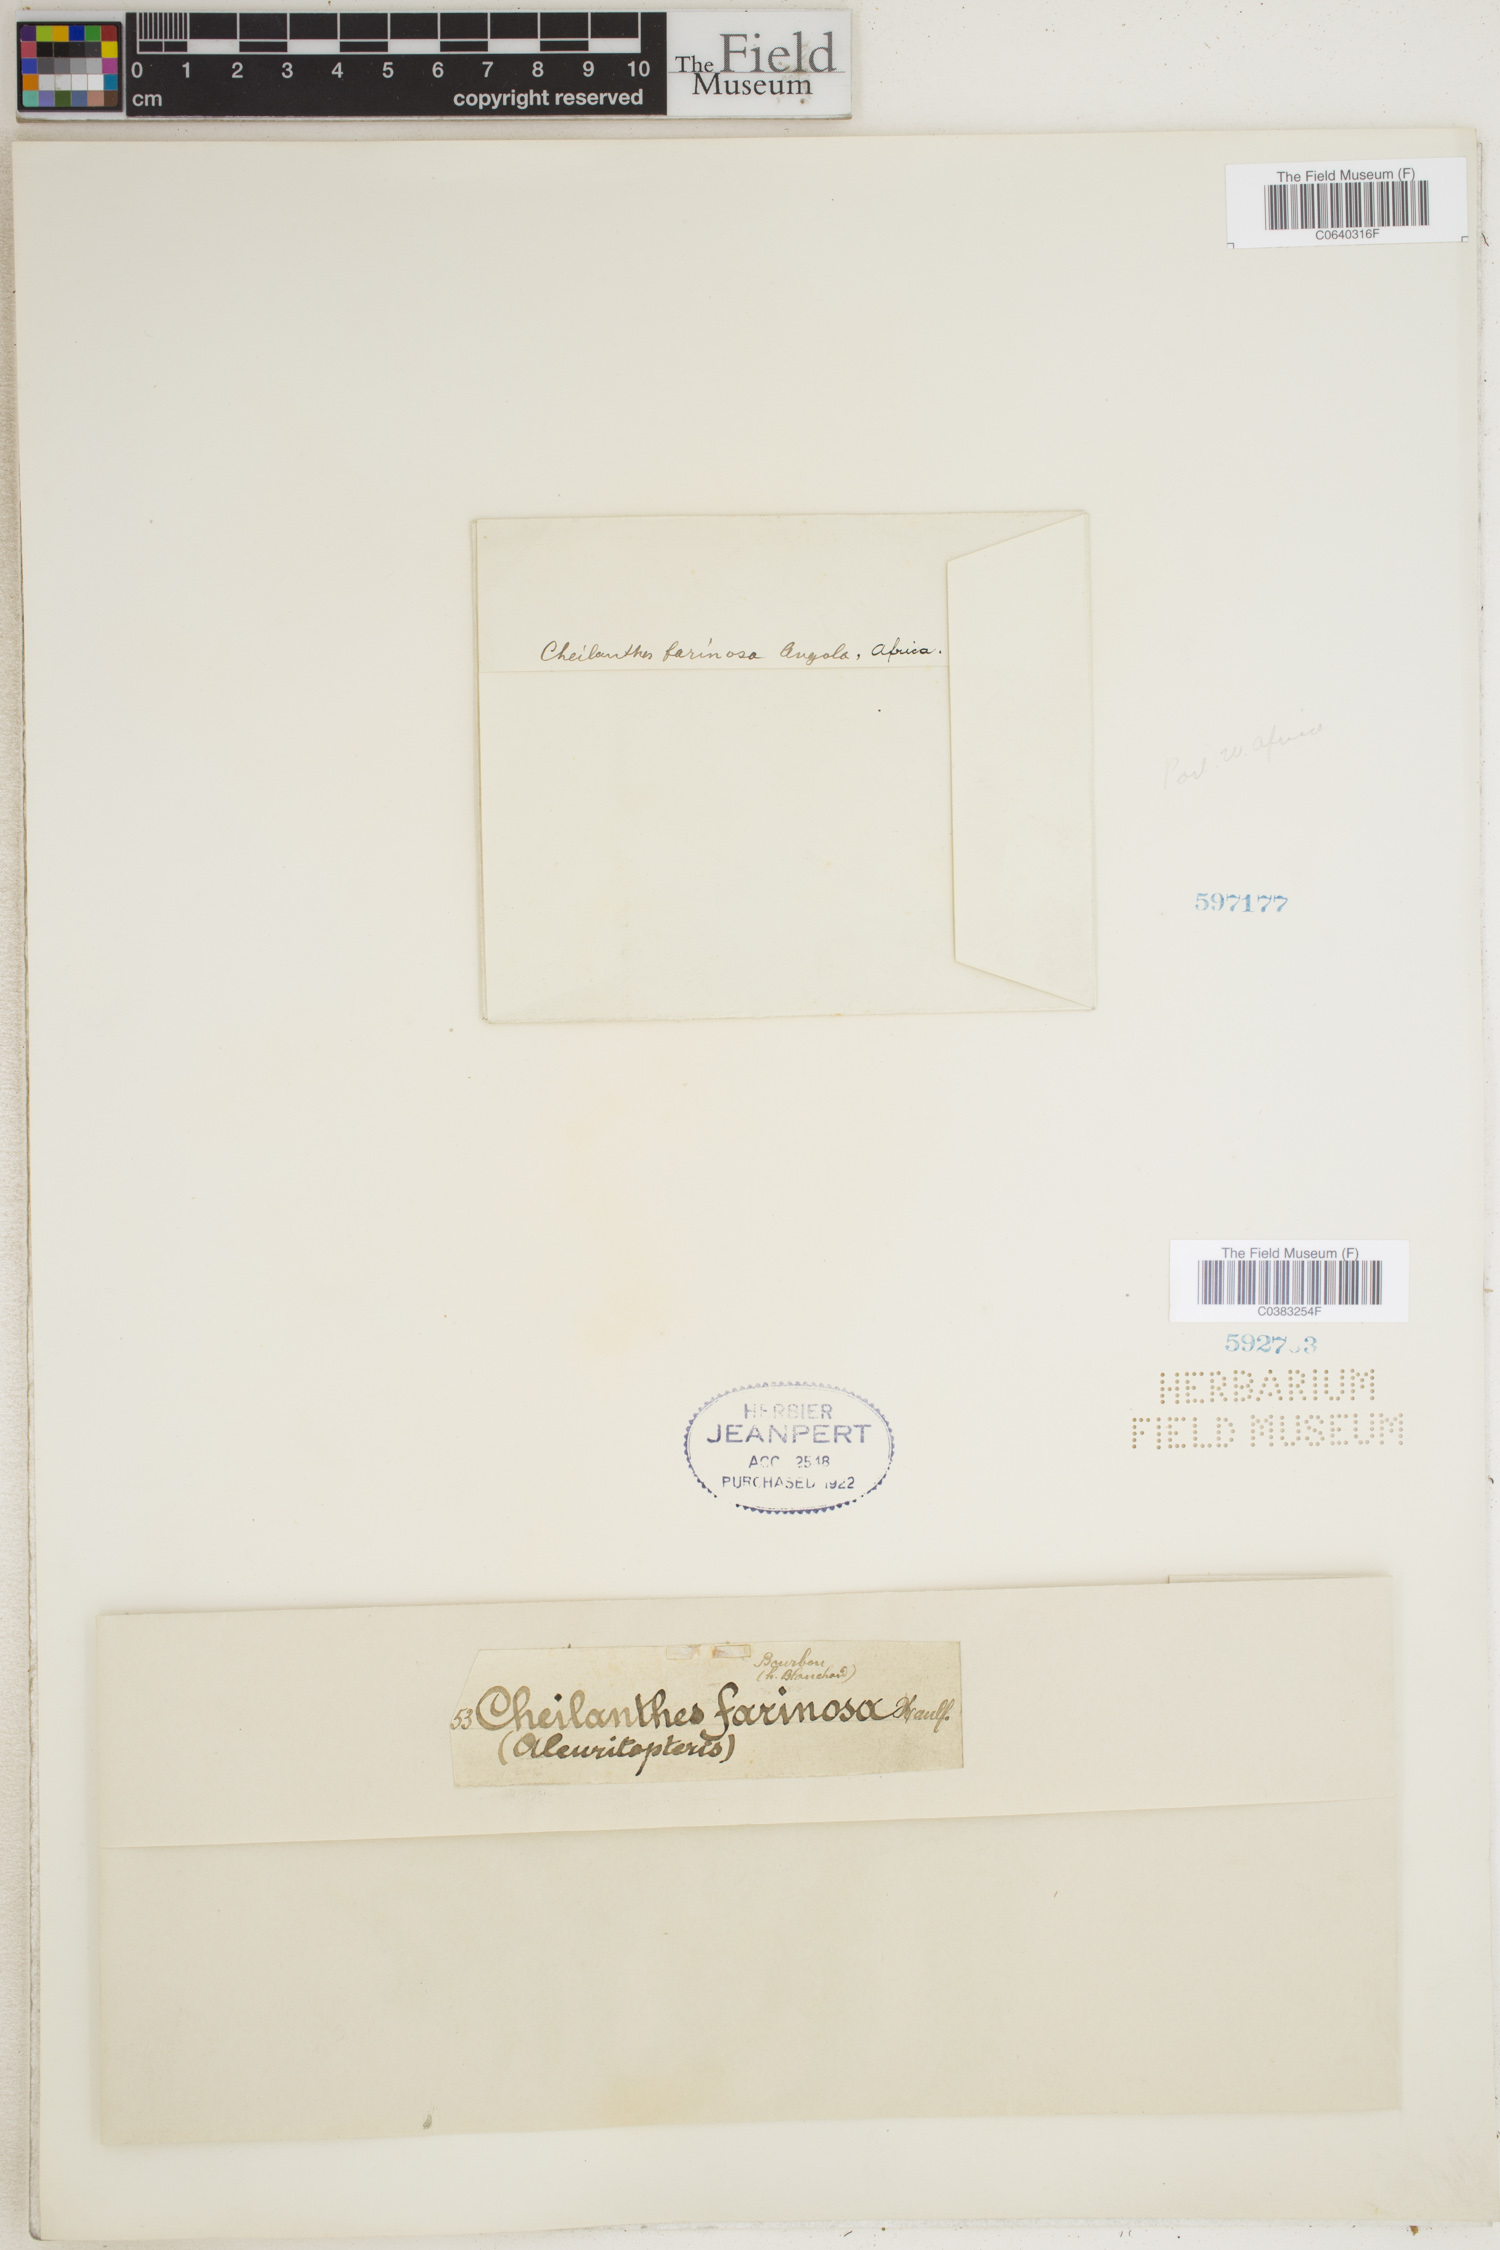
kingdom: Plantae
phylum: Tracheophyta
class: Polypodiopsida
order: Polypodiales
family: Pteridaceae
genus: Aleuritopteris
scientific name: Aleuritopteris farinosa
